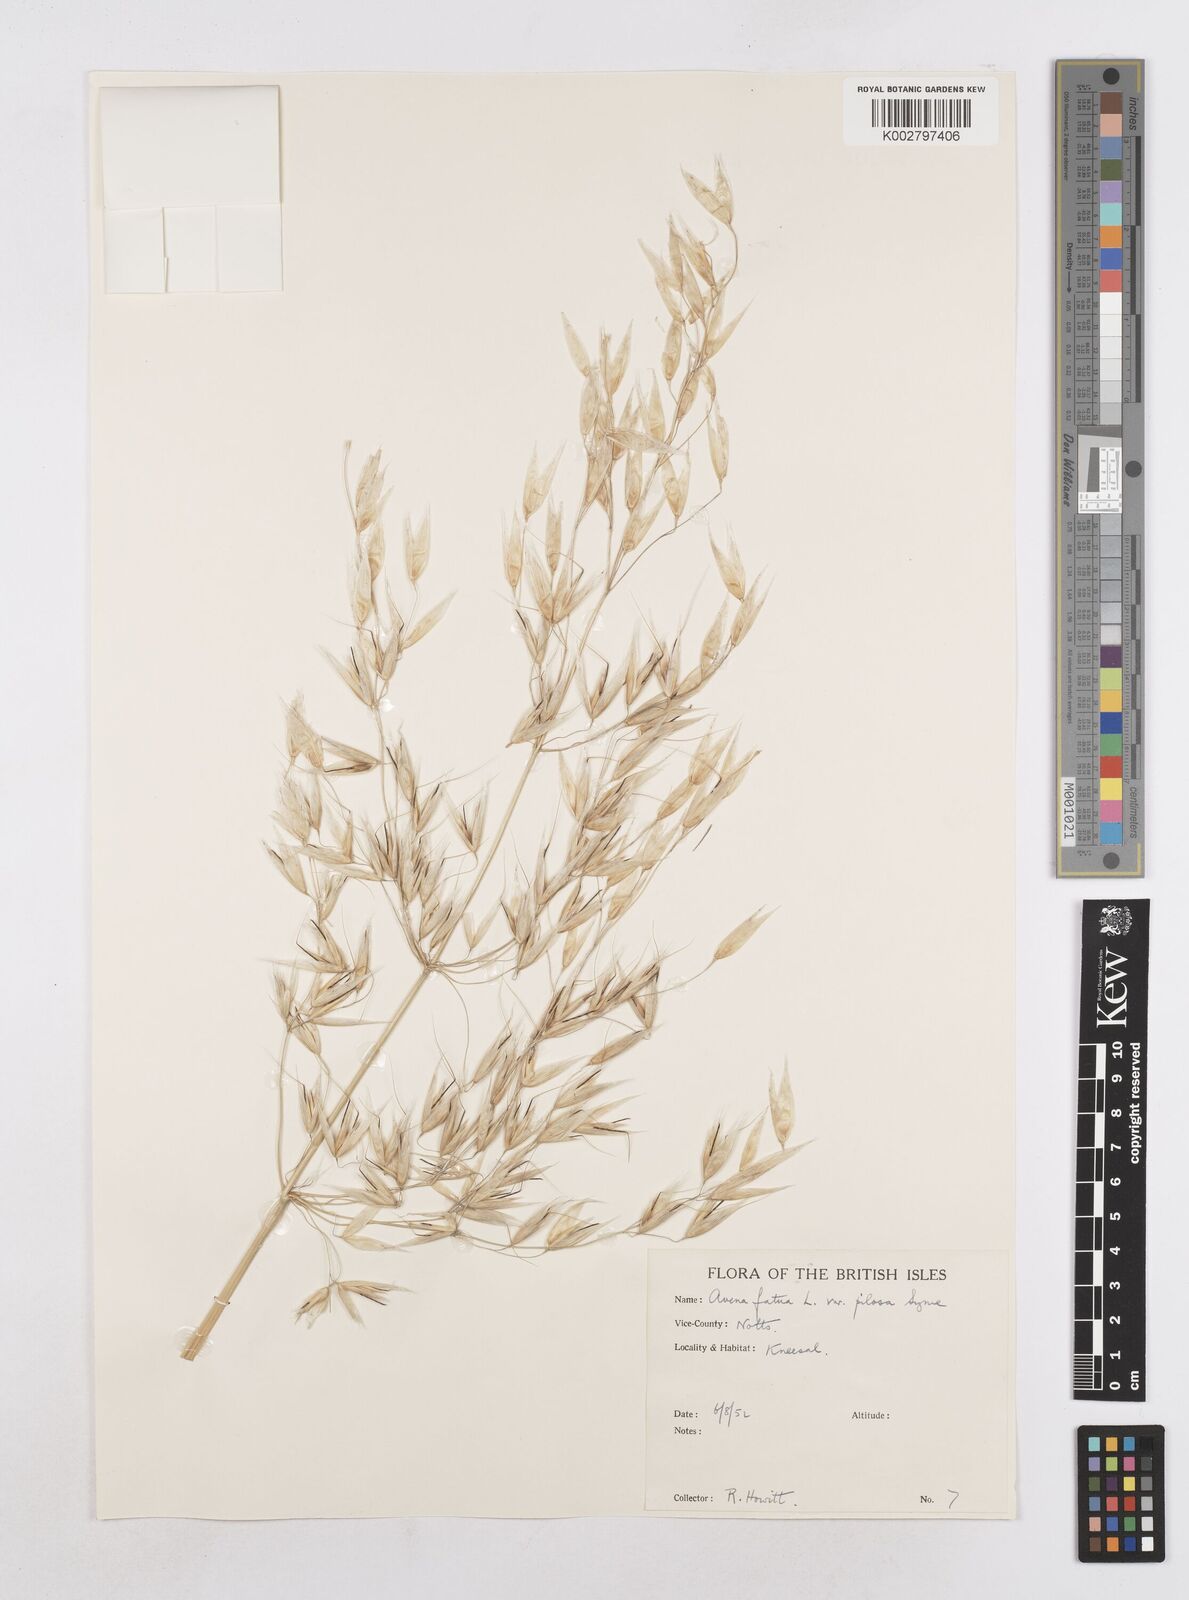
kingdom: Plantae
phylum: Tracheophyta
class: Liliopsida
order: Poales
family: Poaceae
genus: Avena
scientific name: Avena fatua
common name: Wild oat
